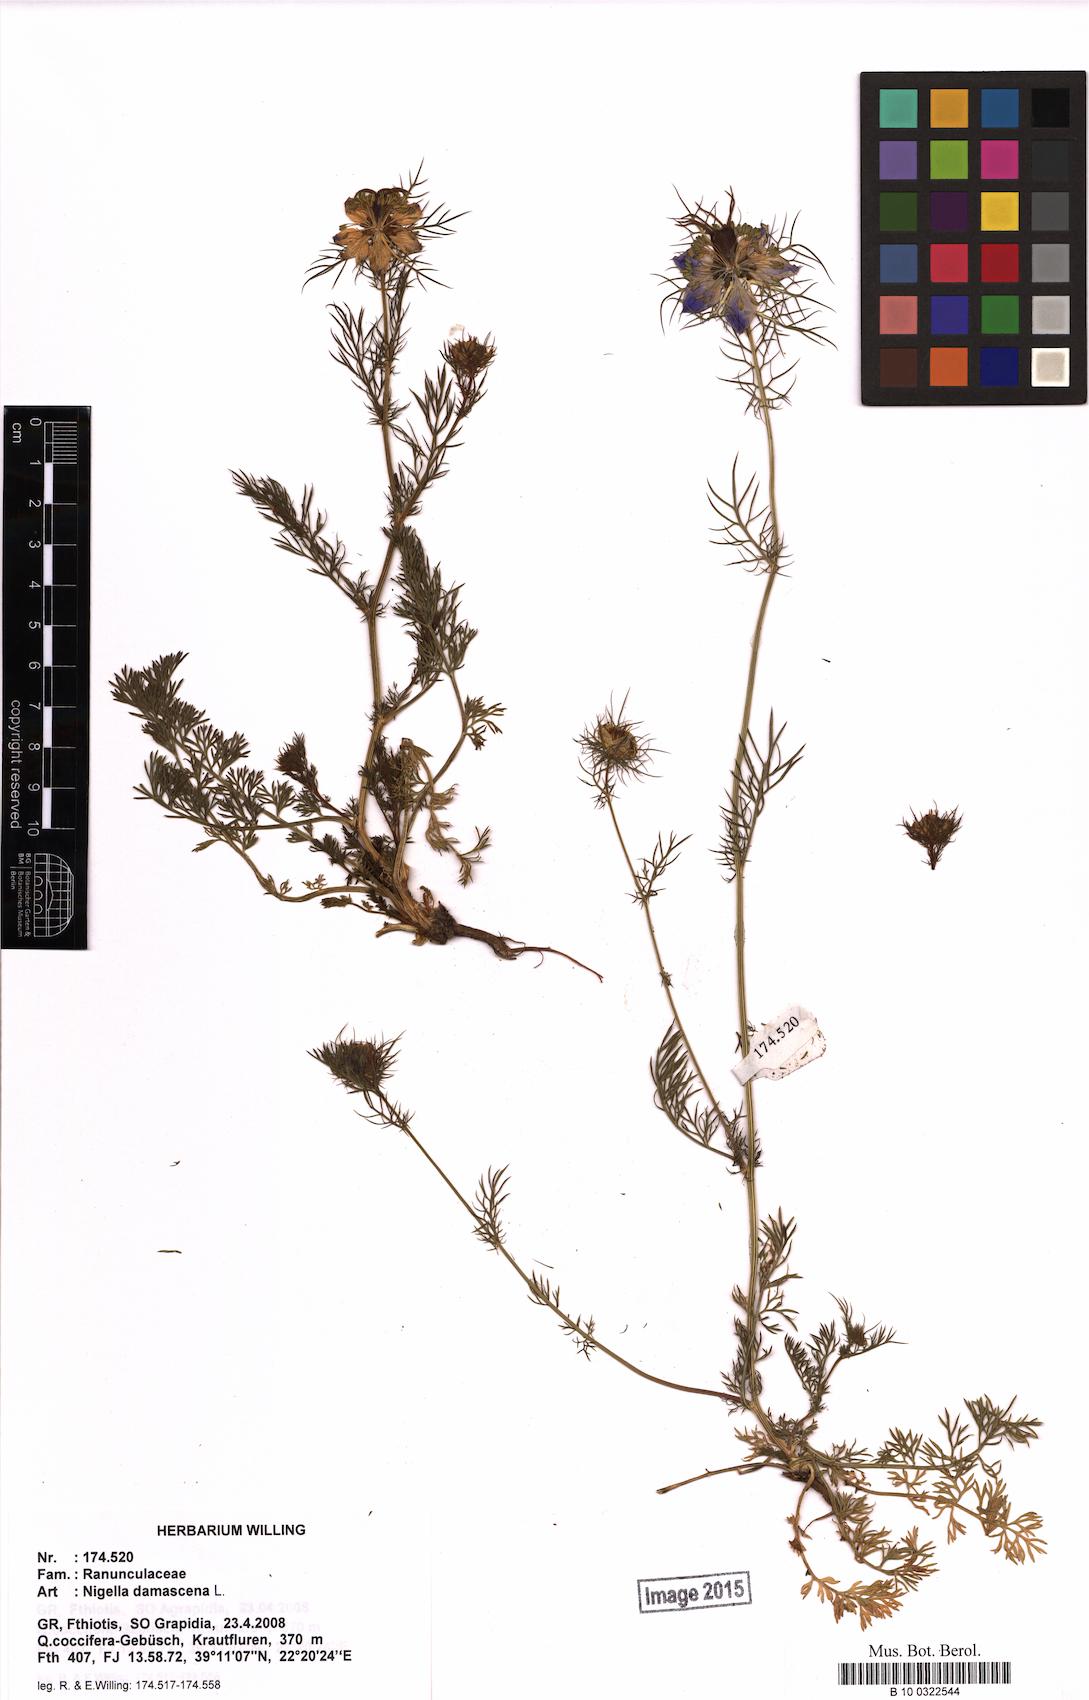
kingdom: Plantae
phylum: Tracheophyta
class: Magnoliopsida
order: Ranunculales
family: Ranunculaceae
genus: Nigella
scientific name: Nigella damascena
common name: Love-in-a-mist
